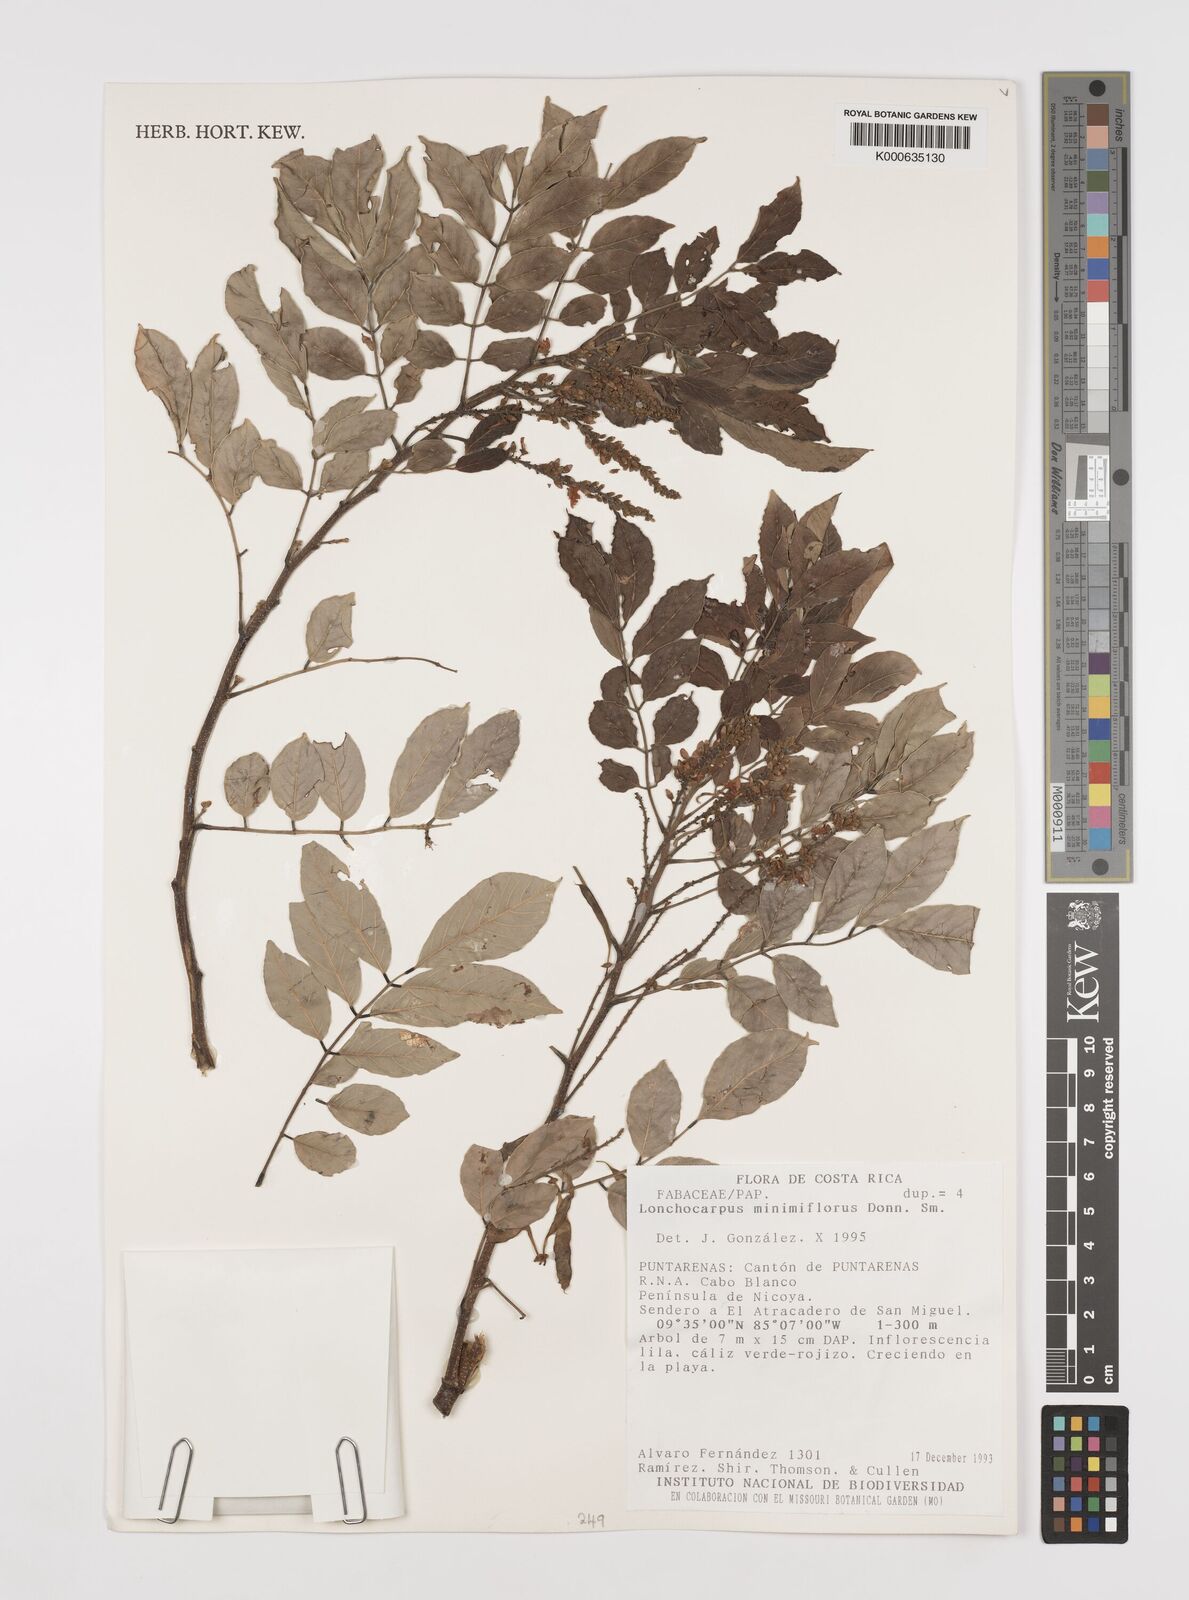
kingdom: Plantae
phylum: Tracheophyta
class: Magnoliopsida
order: Fabales
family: Fabaceae
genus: Lonchocarpus
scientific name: Lonchocarpus minimiflorus
